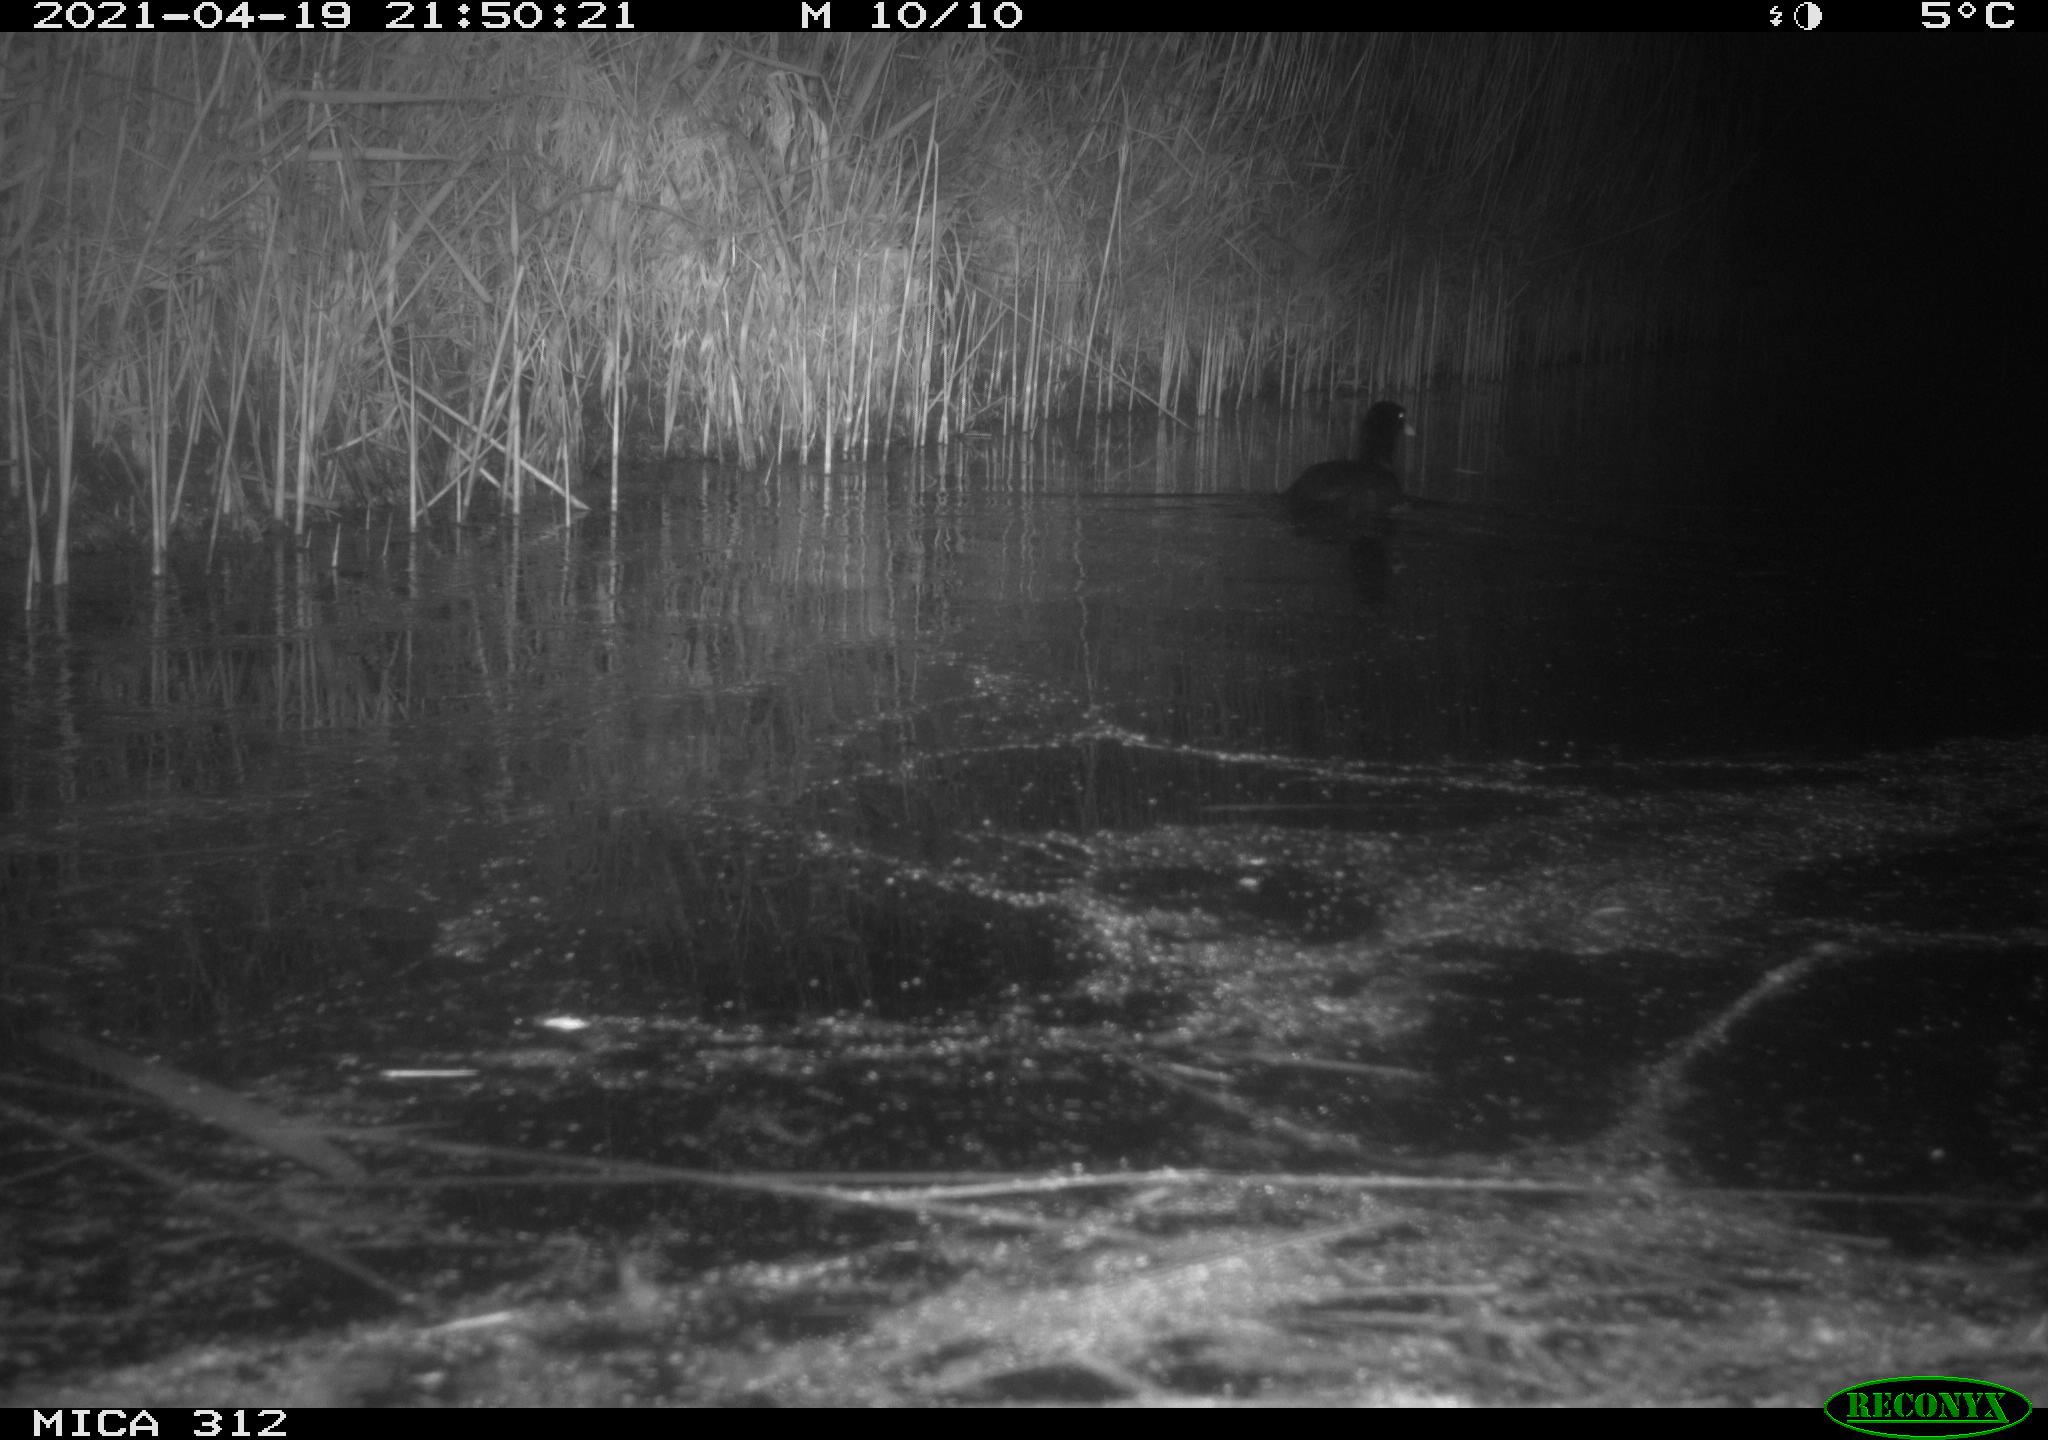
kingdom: Animalia
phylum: Chordata
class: Aves
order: Gruiformes
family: Rallidae
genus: Fulica
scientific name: Fulica atra
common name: Eurasian coot
